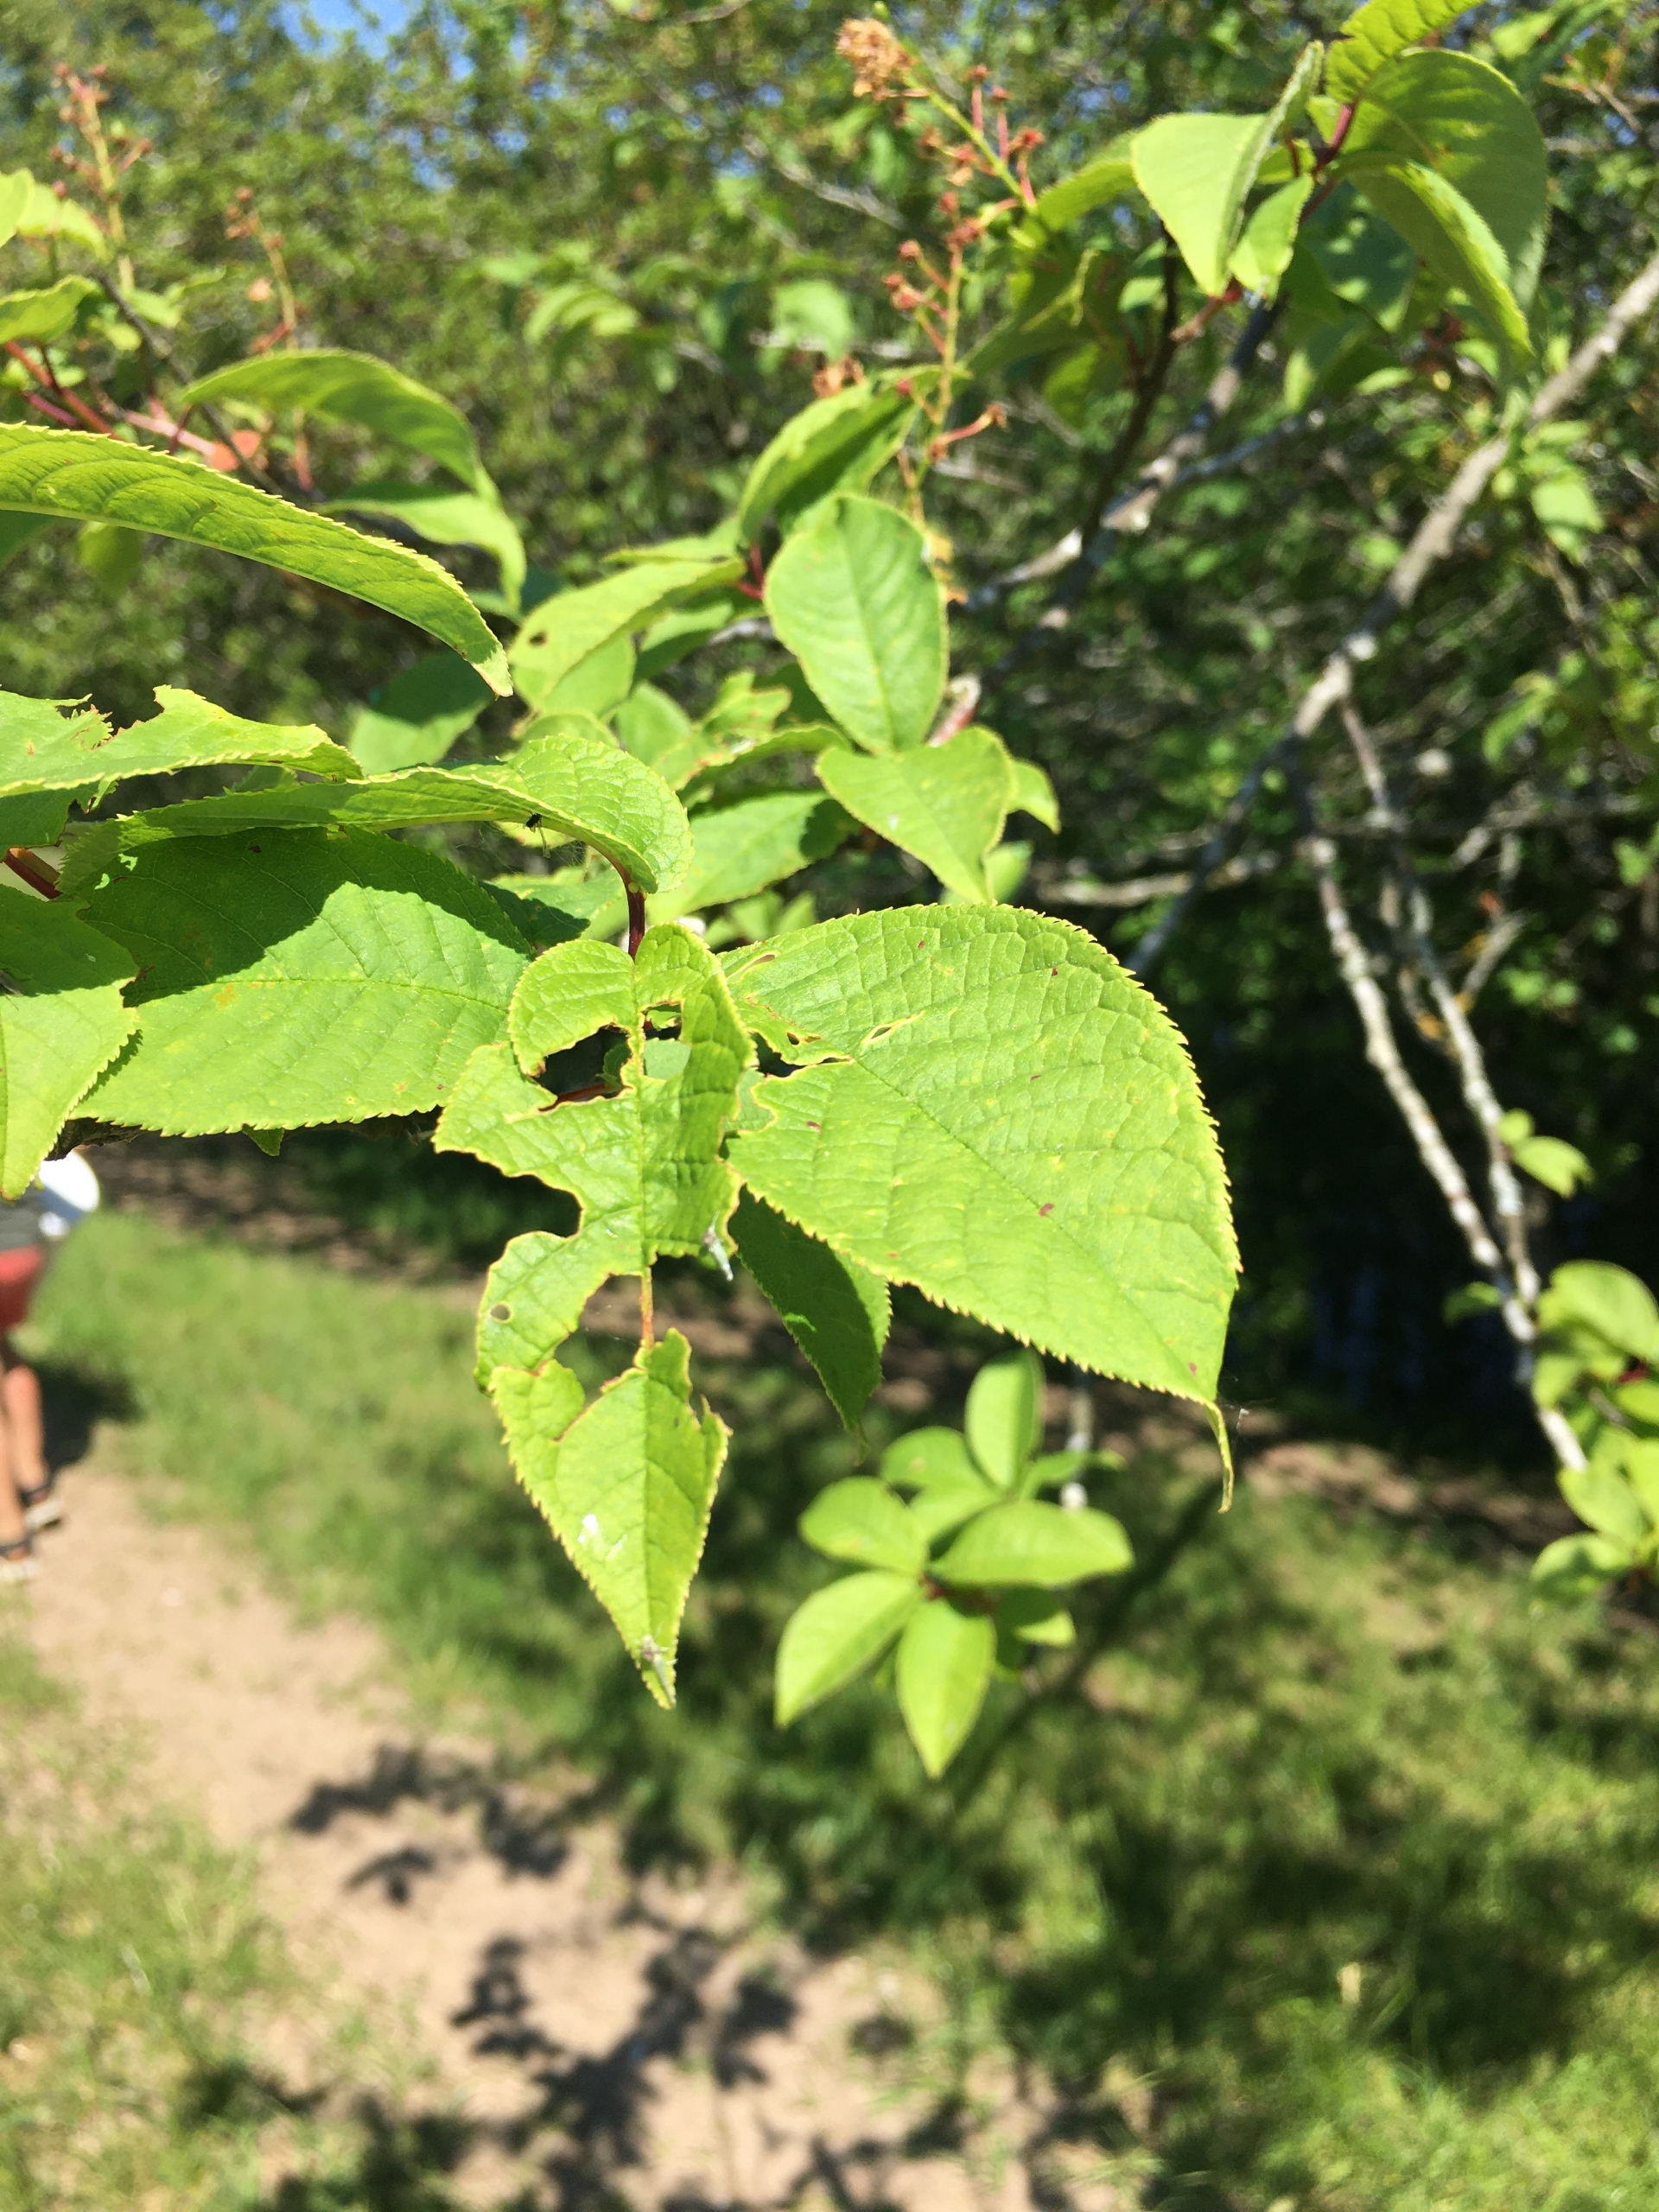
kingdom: Plantae
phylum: Tracheophyta
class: Magnoliopsida
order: Rosales
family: Rosaceae
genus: Prunus
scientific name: Prunus padus
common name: Almindelig hæg
